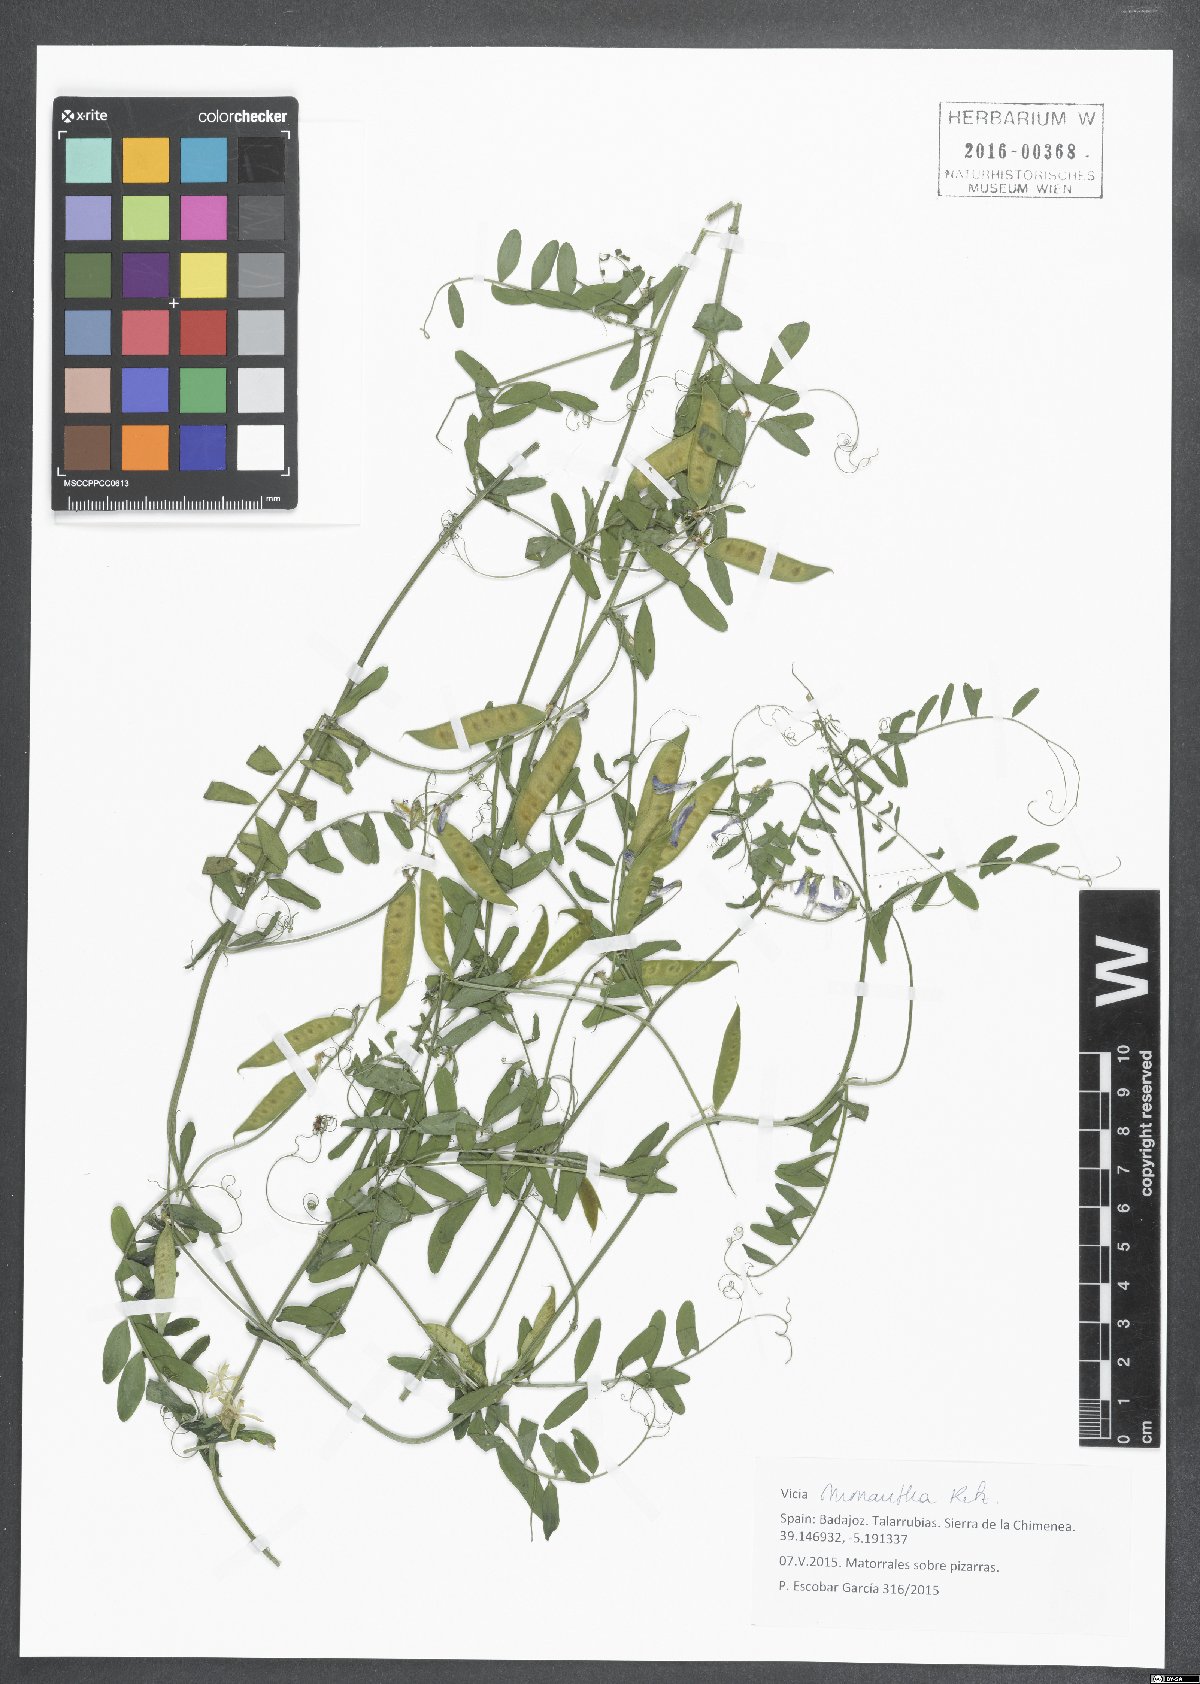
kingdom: Plantae
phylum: Tracheophyta
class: Magnoliopsida
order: Fabales
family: Fabaceae
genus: Vicia
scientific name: Vicia monantha
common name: Barn vetch
